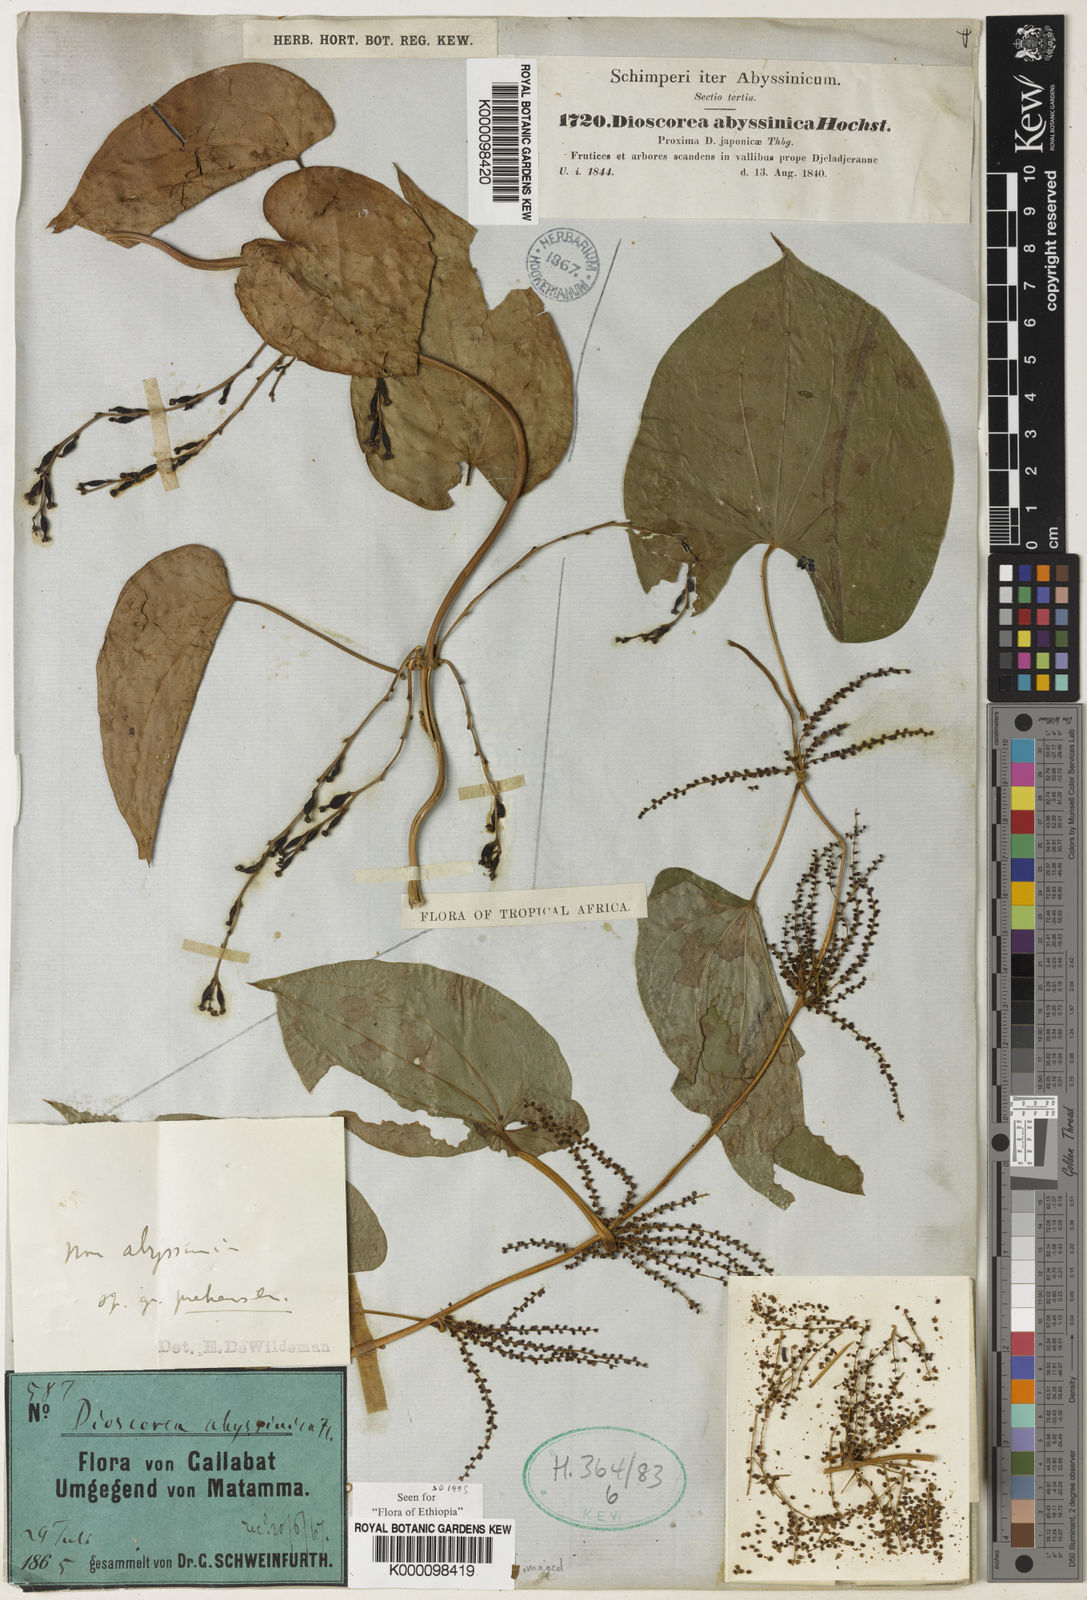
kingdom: Plantae
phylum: Tracheophyta
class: Liliopsida
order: Dioscoreales
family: Dioscoreaceae
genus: Dioscorea
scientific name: Dioscorea abyssinica
